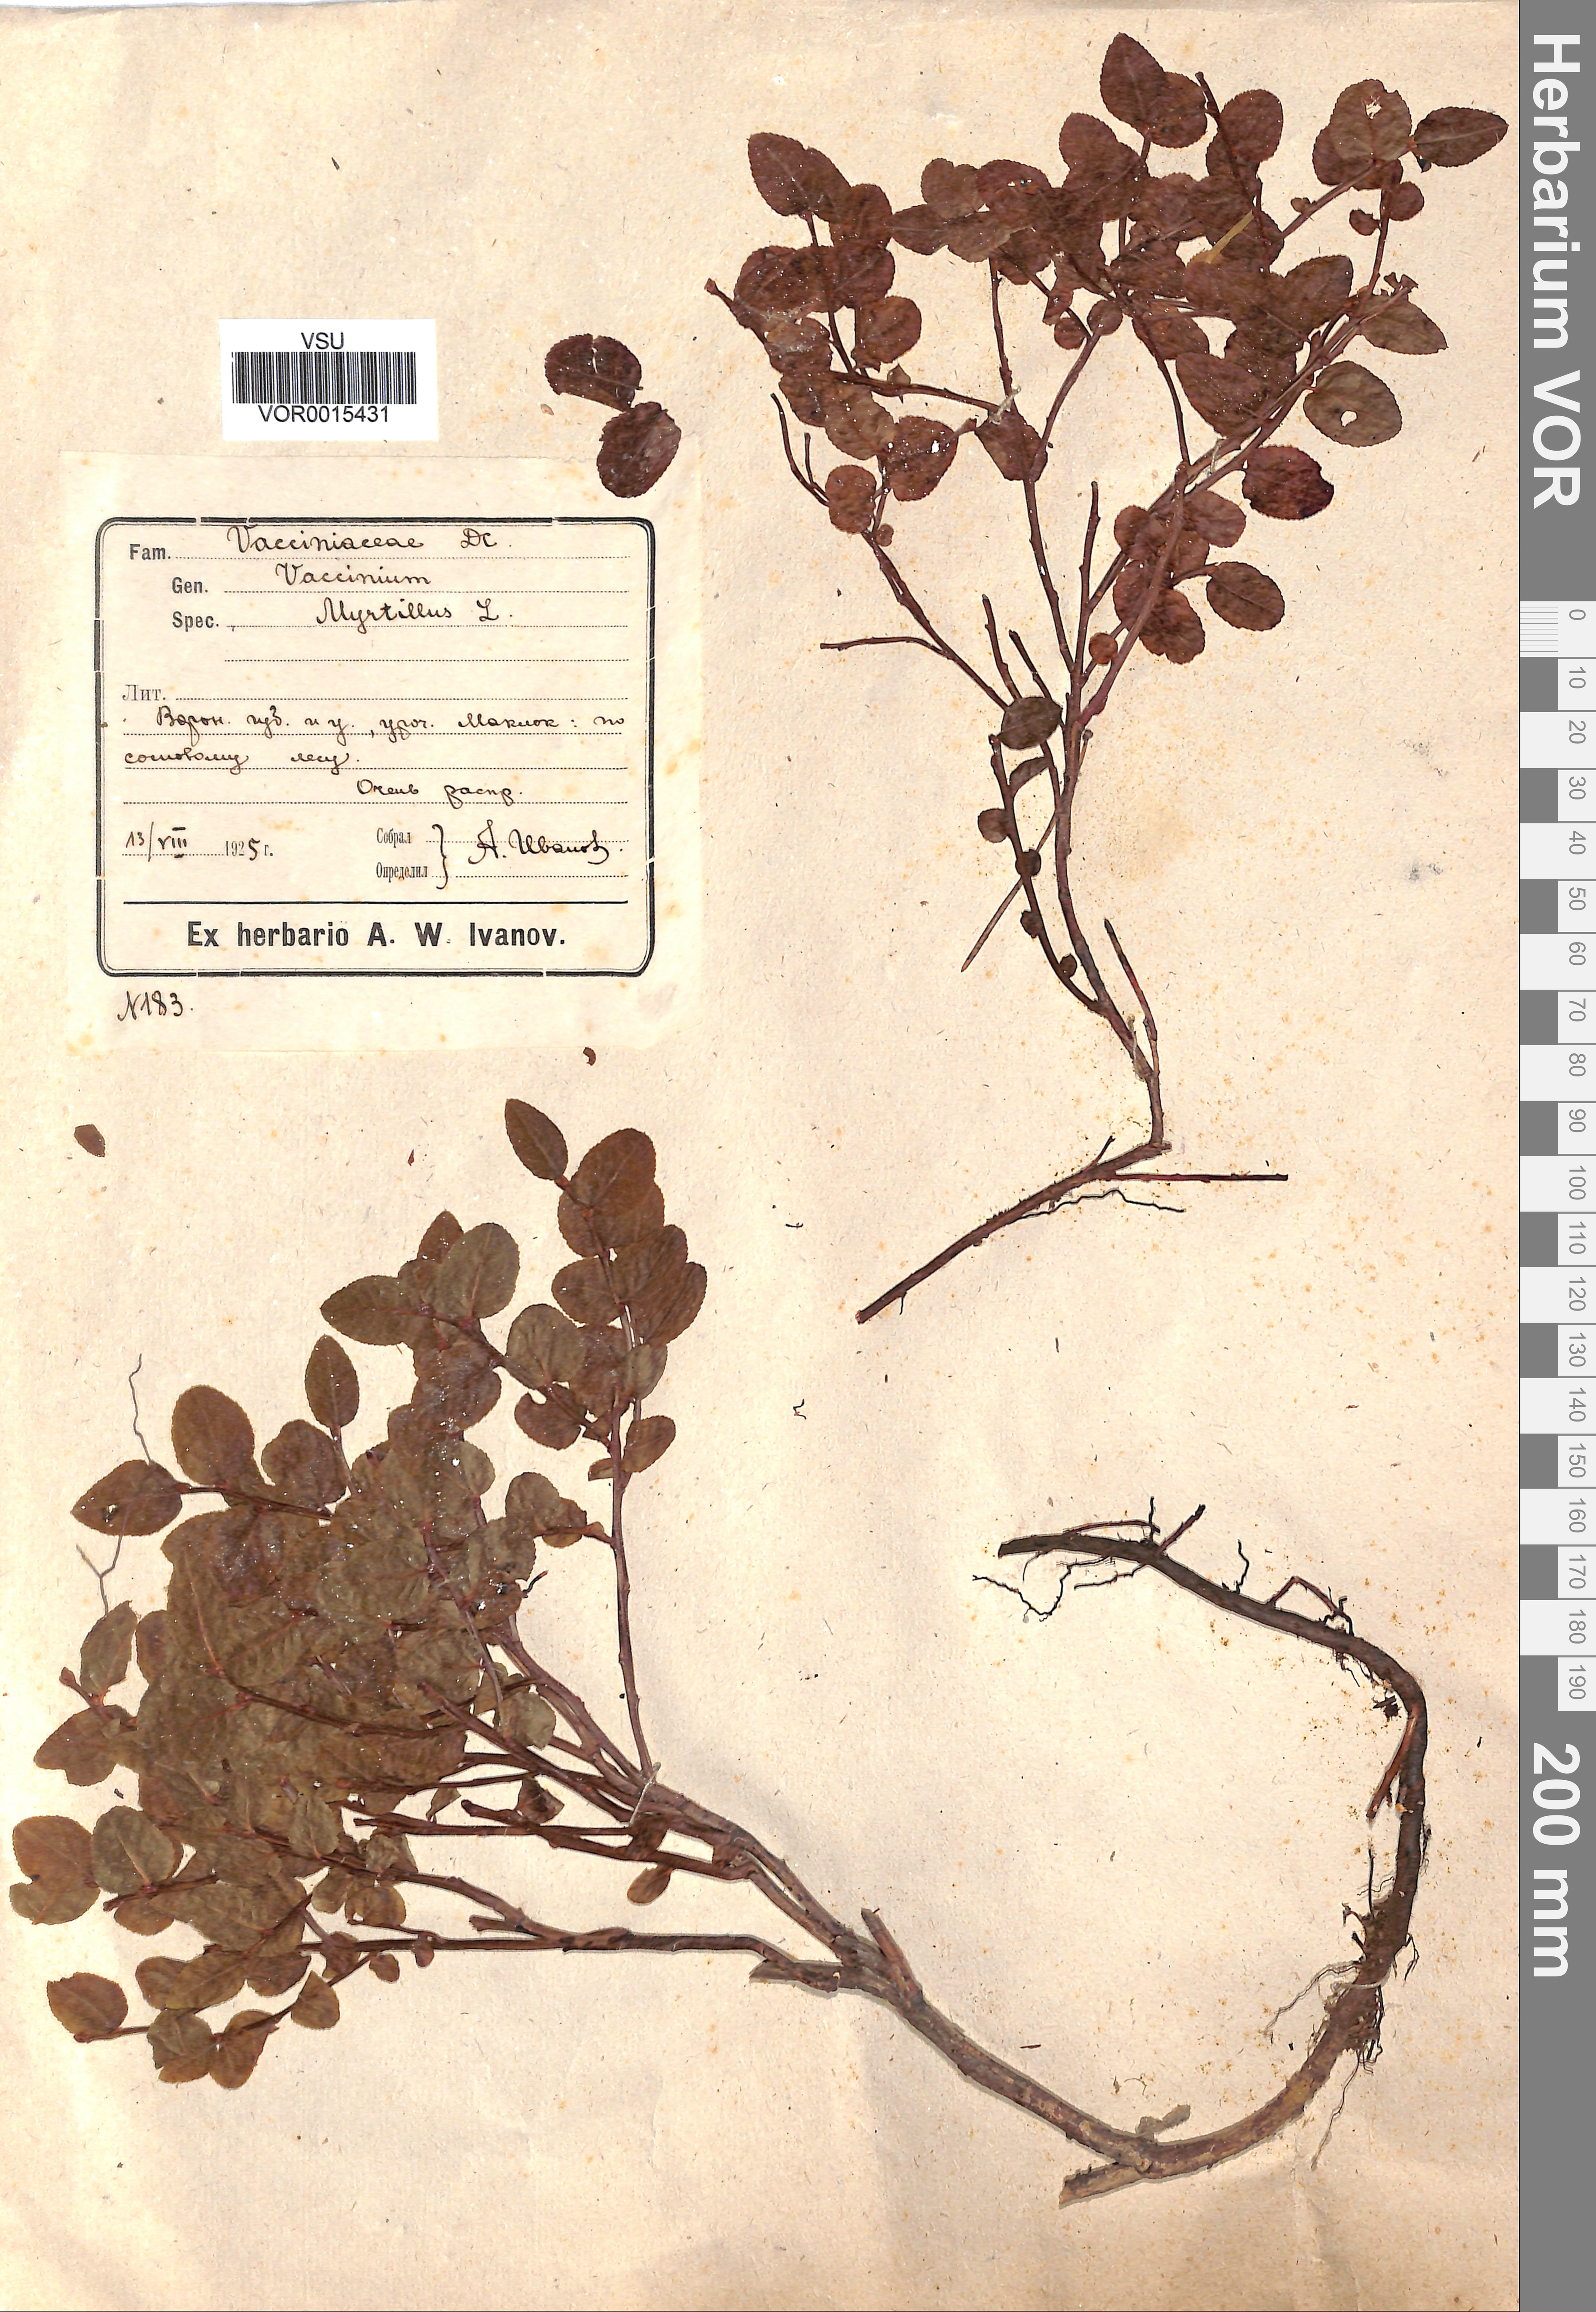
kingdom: Plantae
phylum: Tracheophyta
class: Magnoliopsida
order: Ericales
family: Ericaceae
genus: Vaccinium
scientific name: Vaccinium myrtillus
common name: Bilberry
